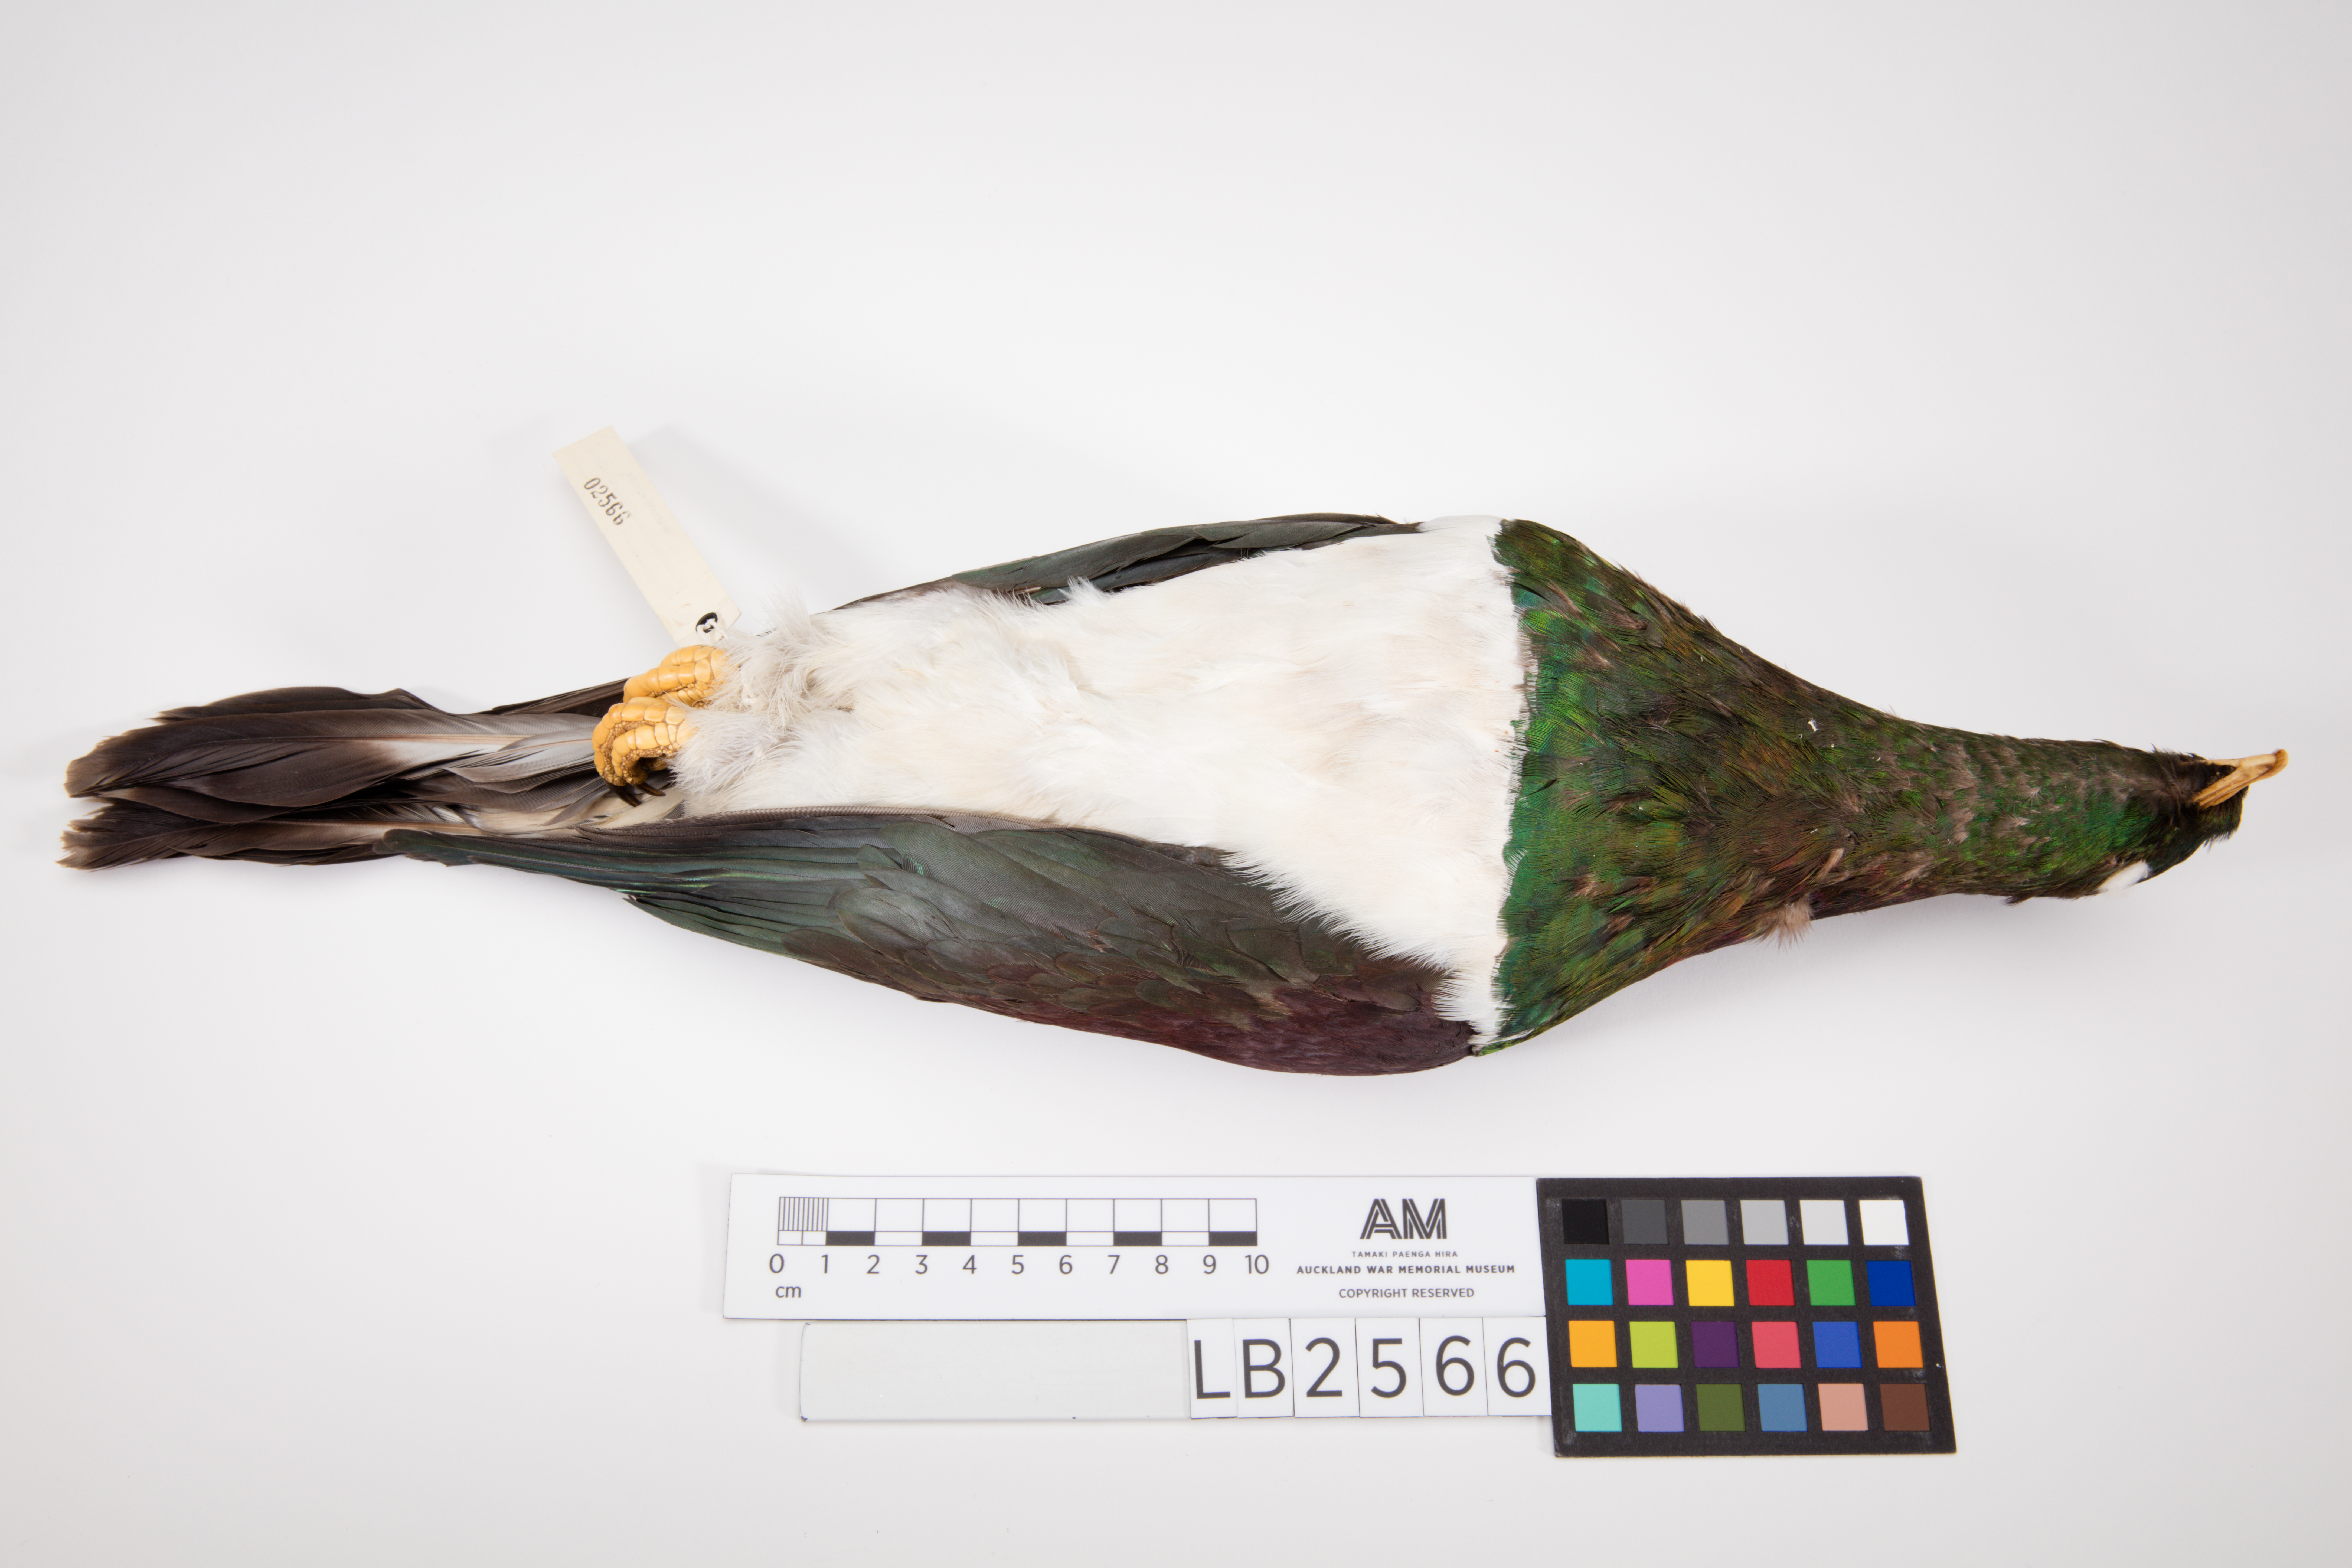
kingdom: Animalia
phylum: Chordata
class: Aves
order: Columbiformes
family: Columbidae
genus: Hemiphaga
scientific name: Hemiphaga novaeseelandiae
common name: New zealand pigeon
